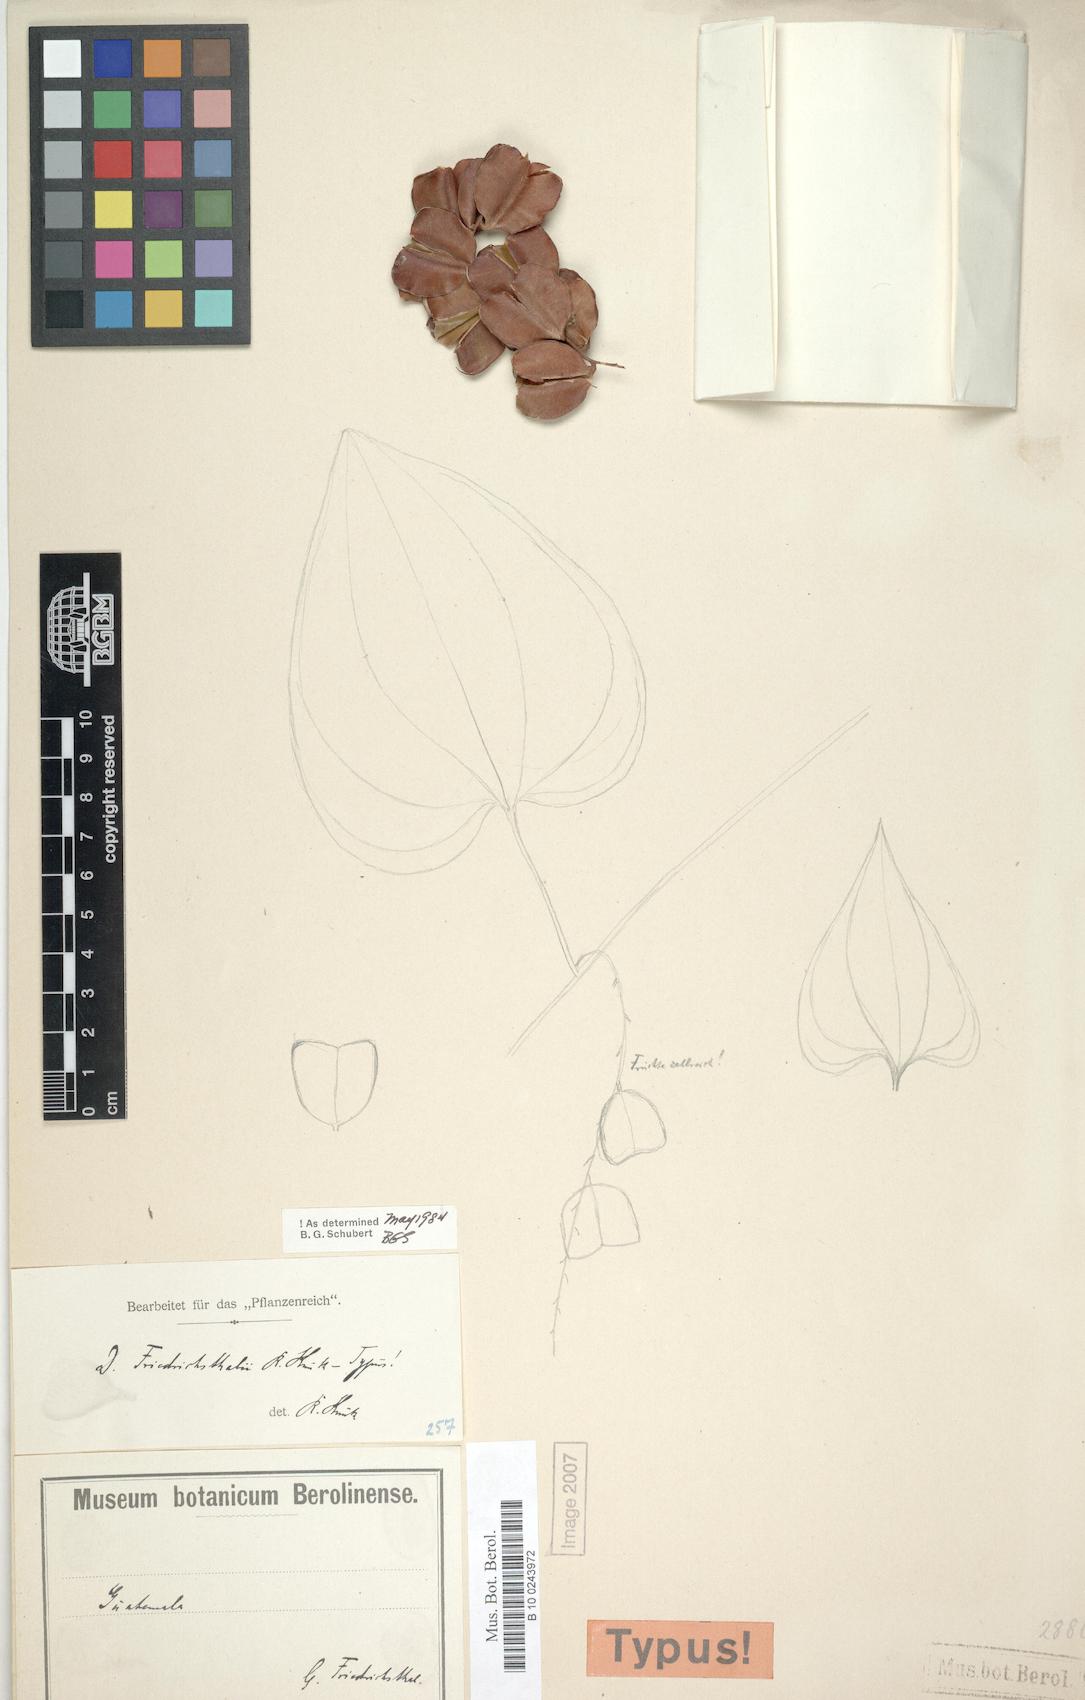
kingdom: Plantae
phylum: Tracheophyta
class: Liliopsida
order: Dioscoreales
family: Dioscoreaceae
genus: Dioscorea
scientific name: Dioscorea spiculiflora
